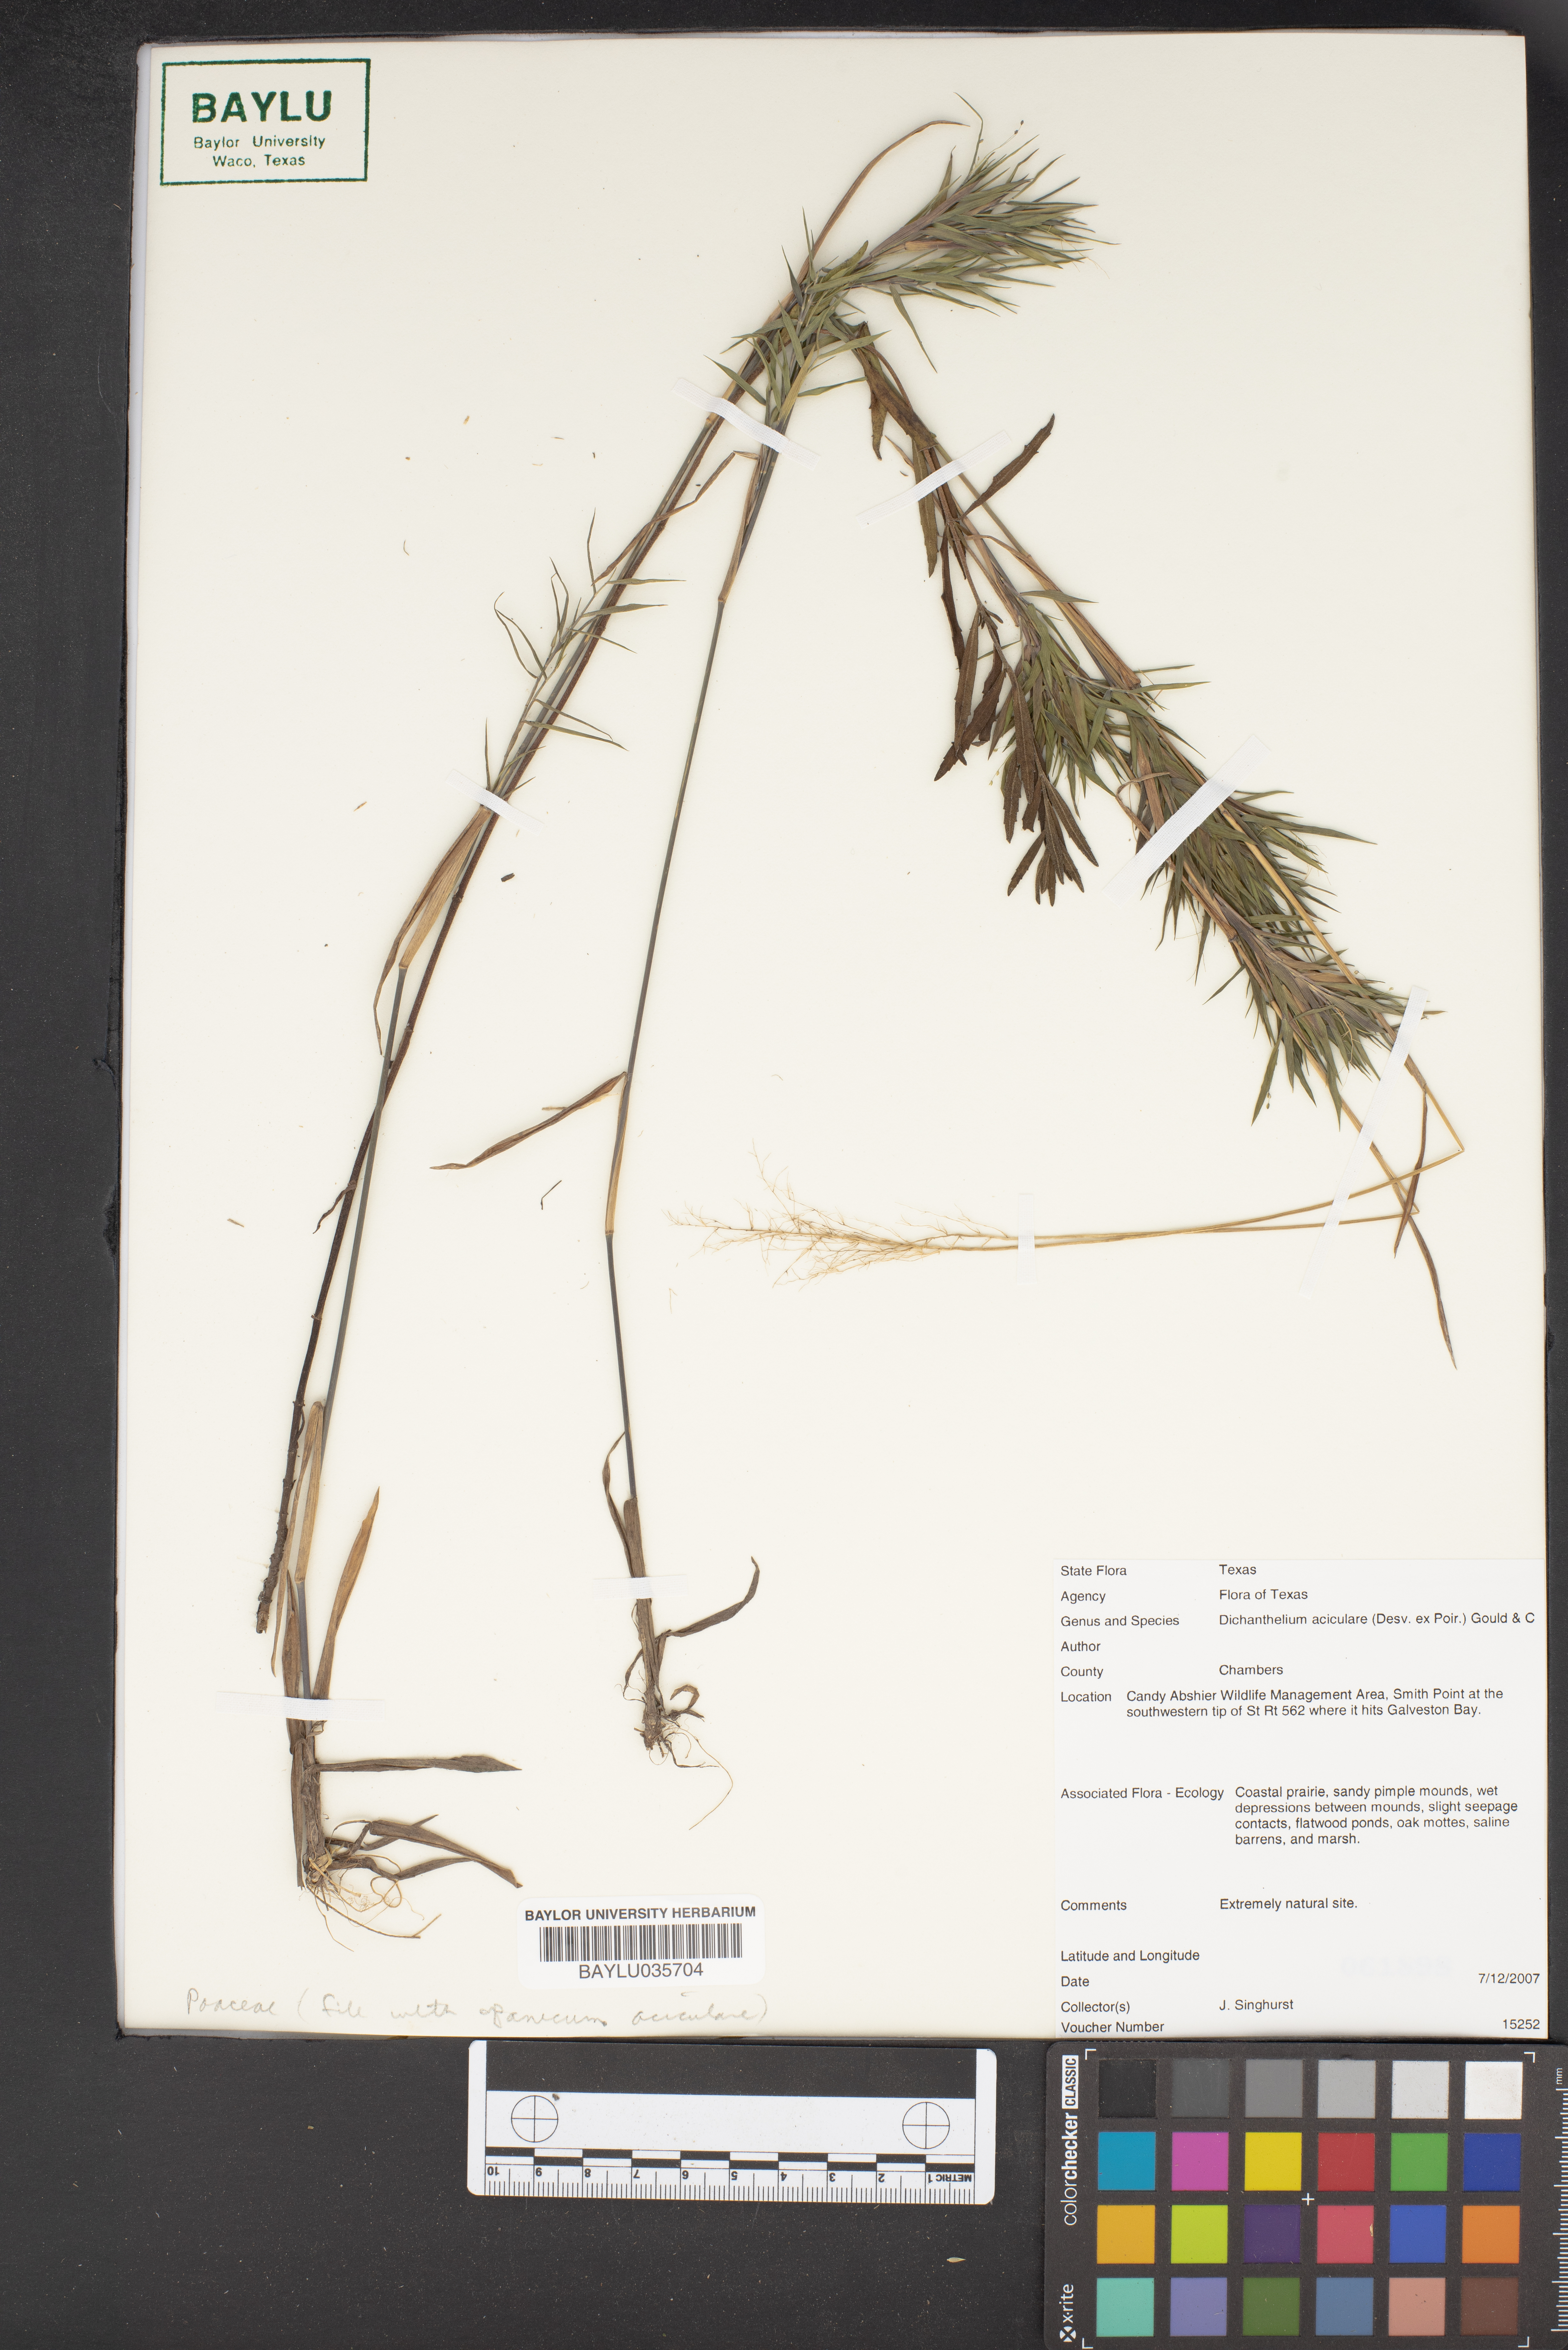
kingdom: Plantae
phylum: Tracheophyta
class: Liliopsida
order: Poales
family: Poaceae
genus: Dichanthelium
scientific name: Dichanthelium aciculare
